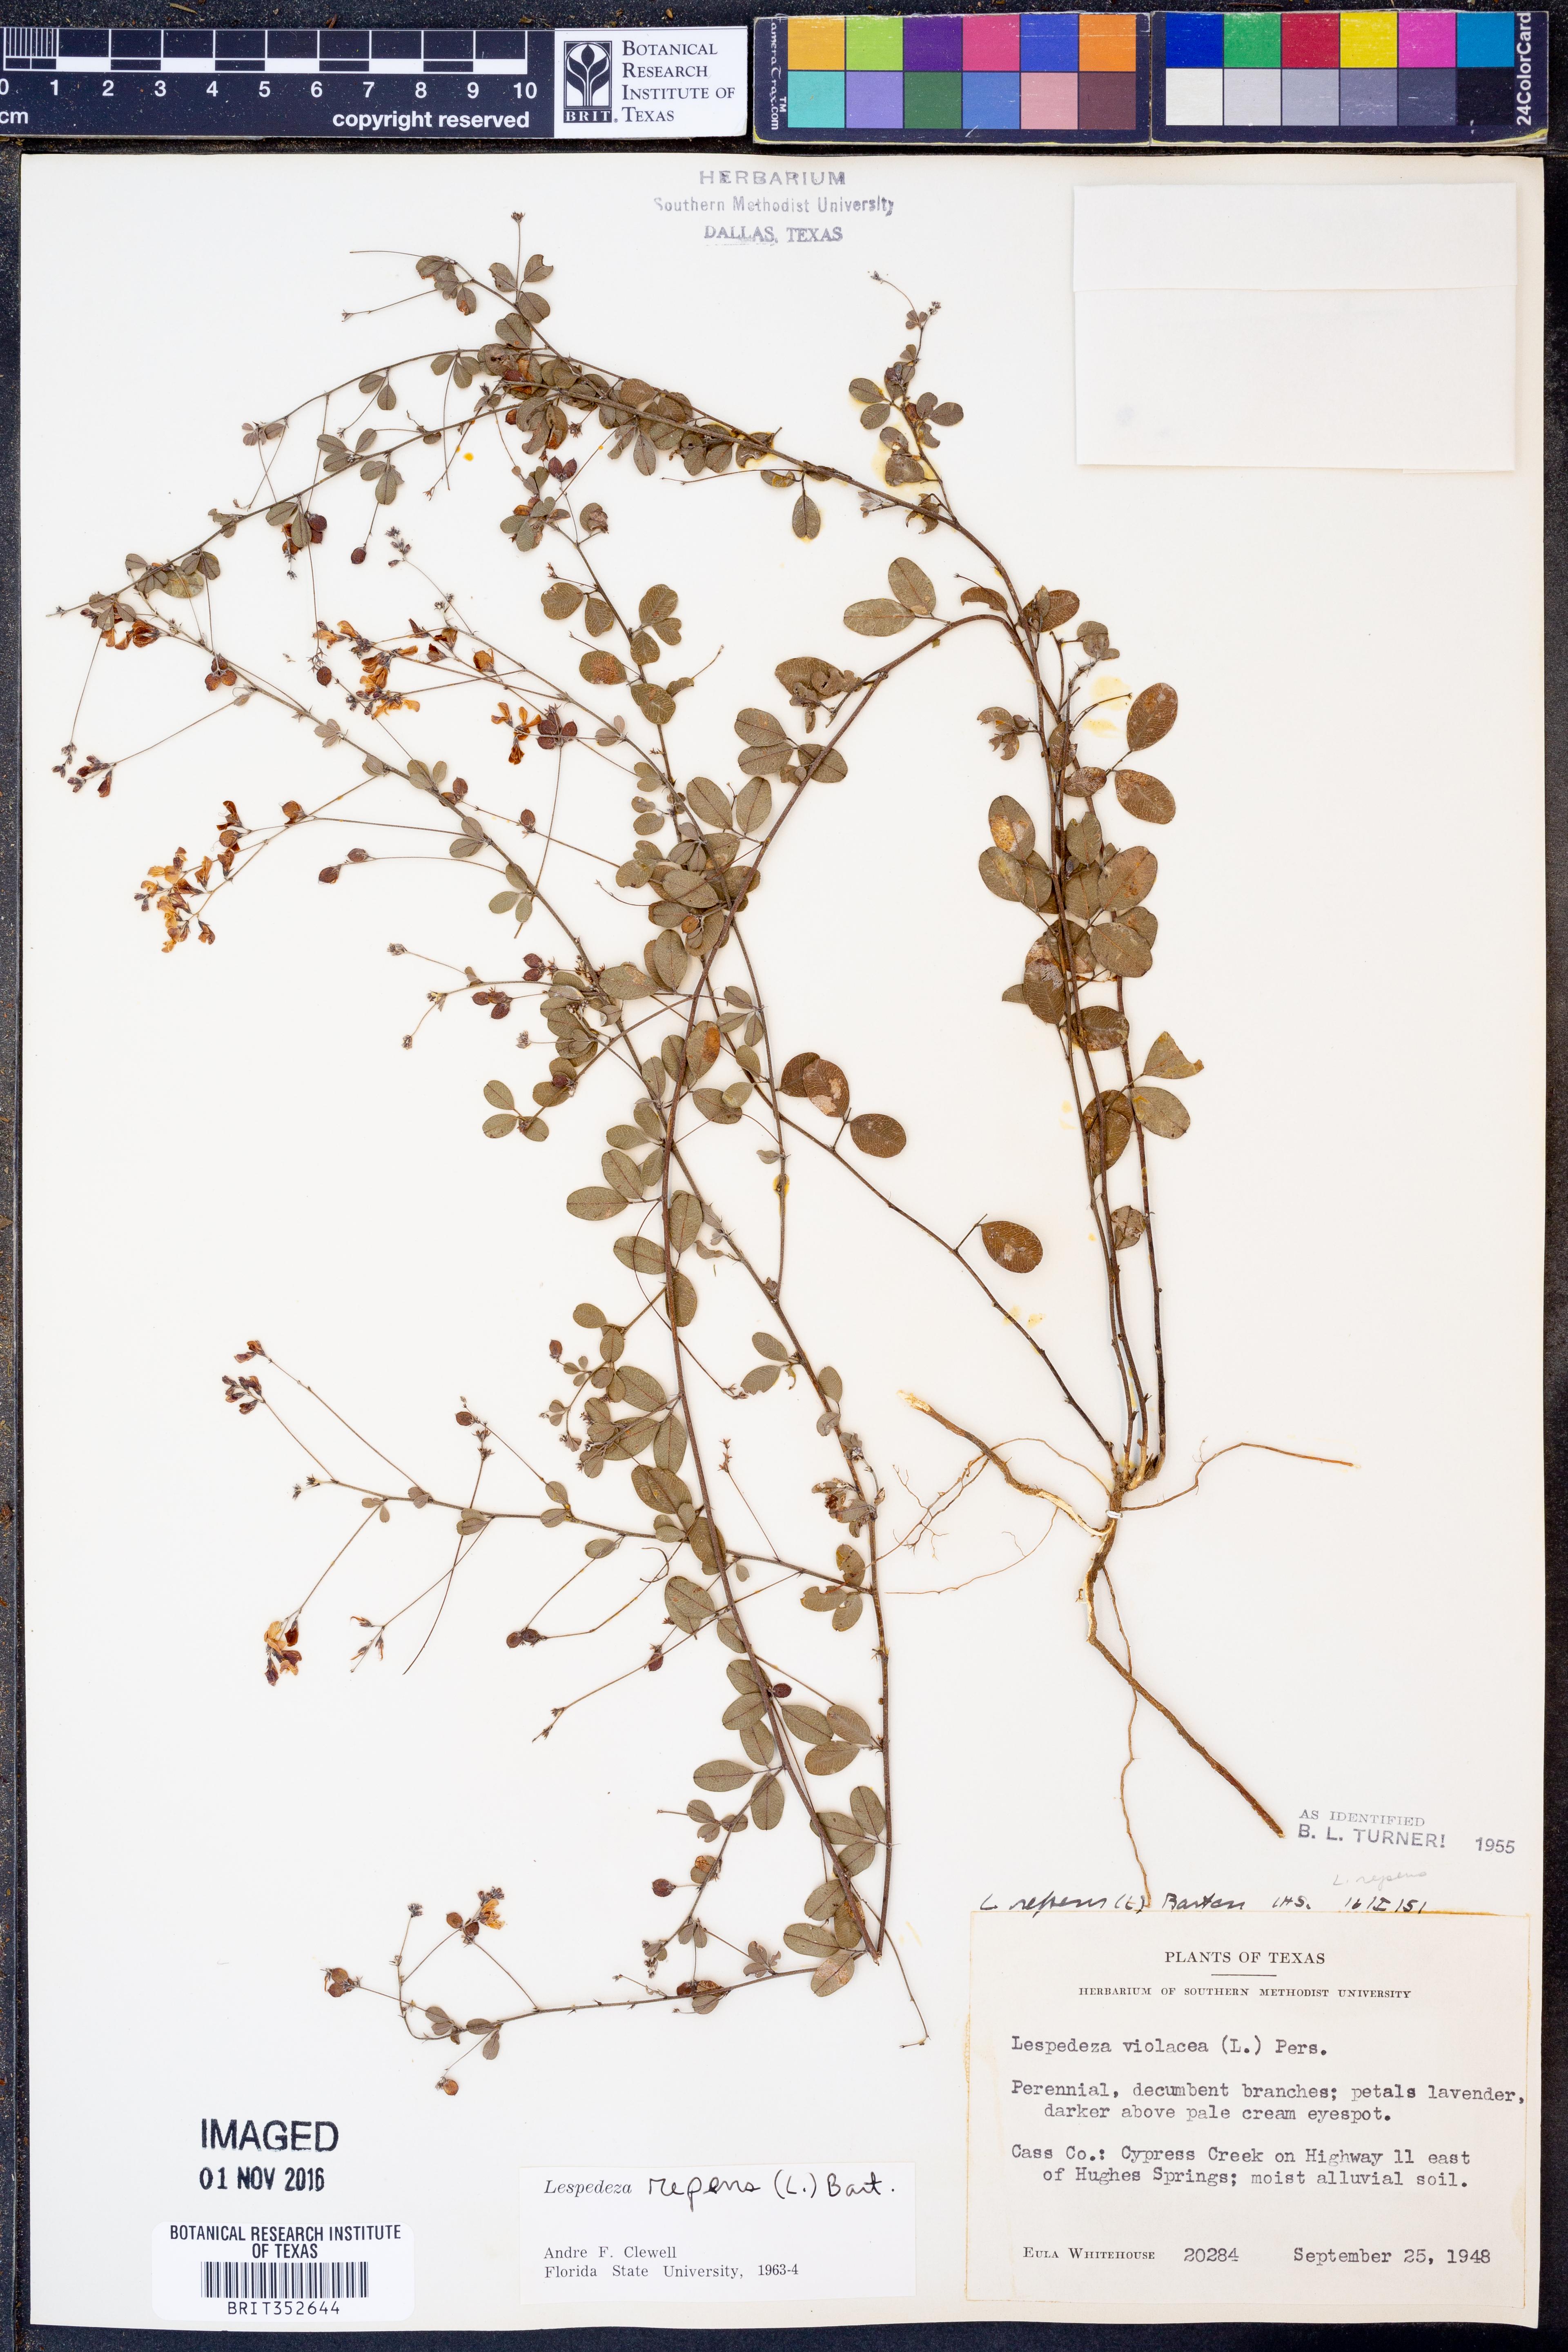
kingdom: Plantae
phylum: Tracheophyta
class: Magnoliopsida
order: Fabales
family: Fabaceae
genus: Lespedeza
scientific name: Lespedeza repens
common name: Creeping bush-clover
